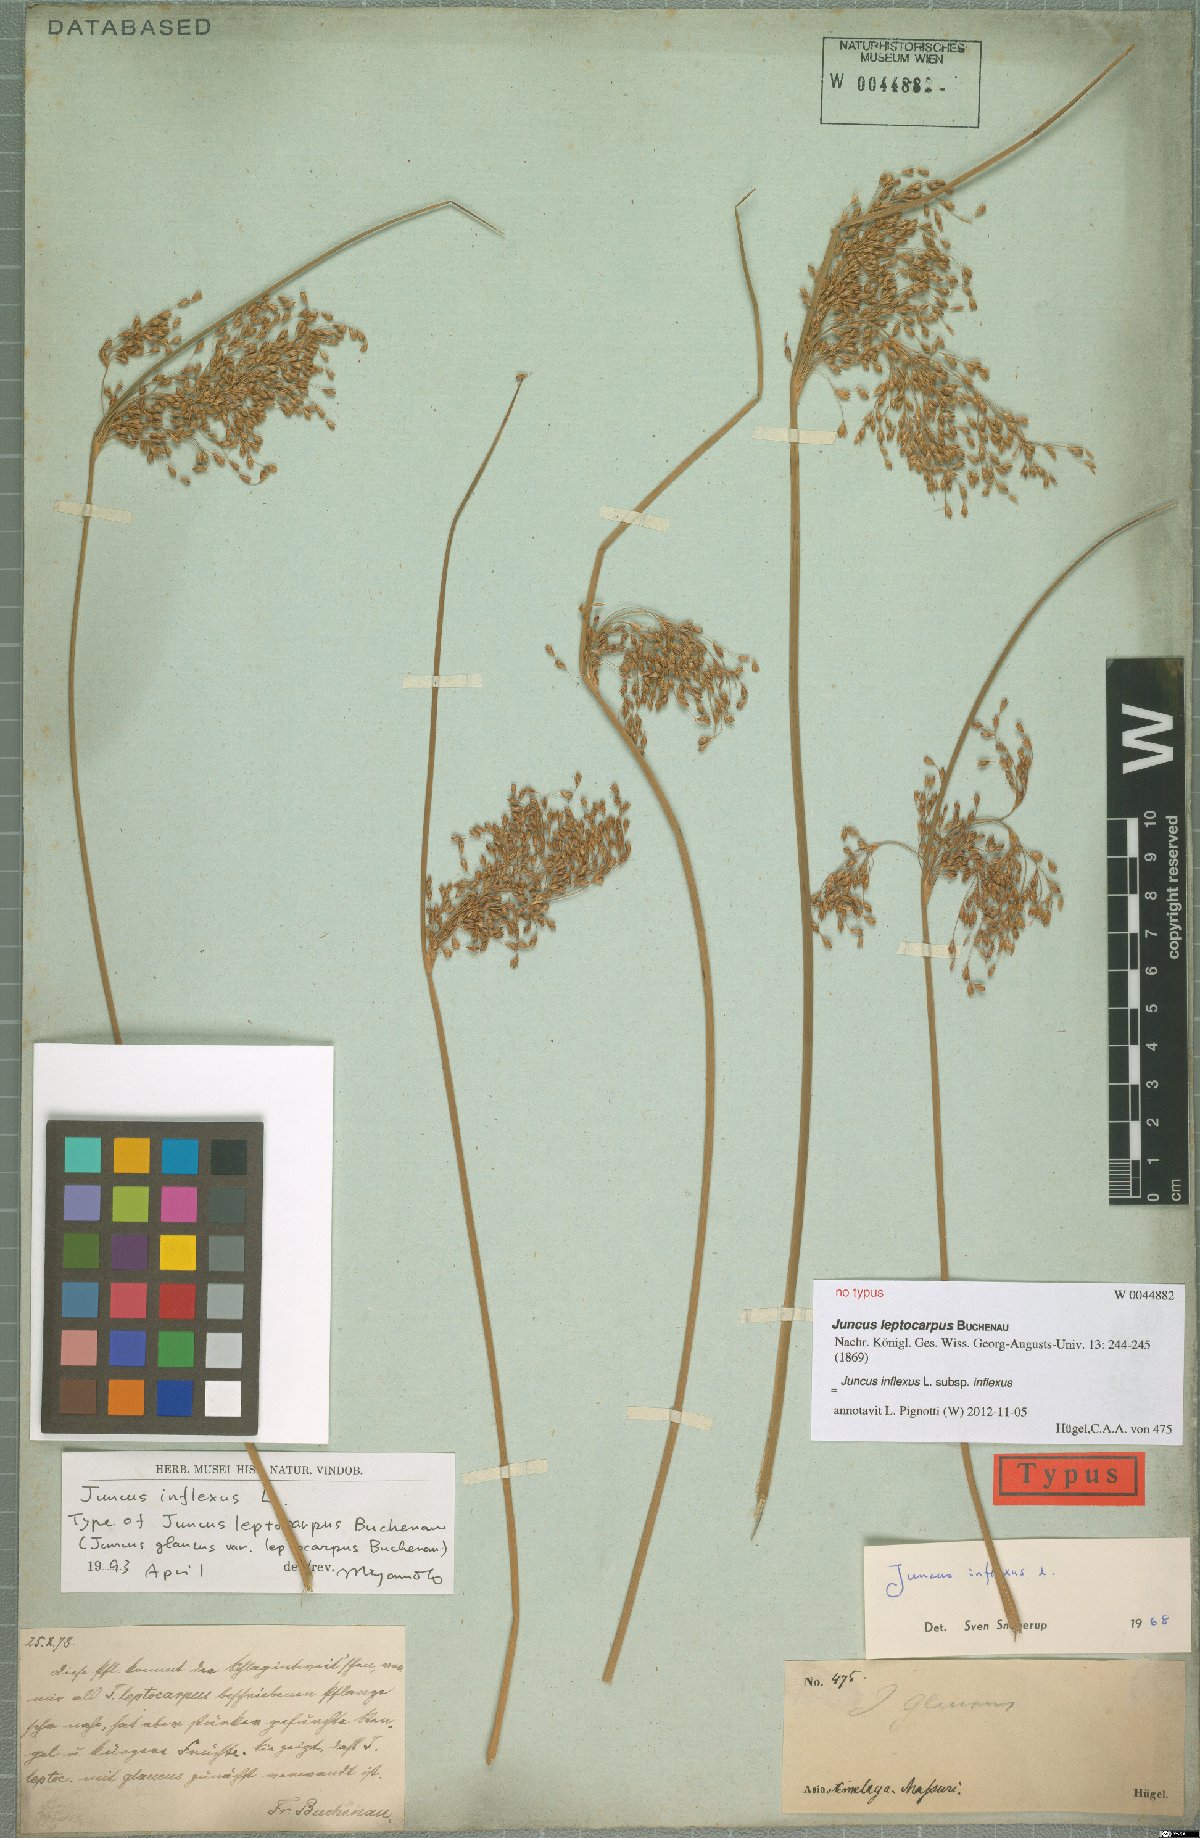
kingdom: Plantae
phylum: Tracheophyta
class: Liliopsida
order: Poales
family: Juncaceae
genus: Juncus
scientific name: Juncus inflexus
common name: Hard rush
